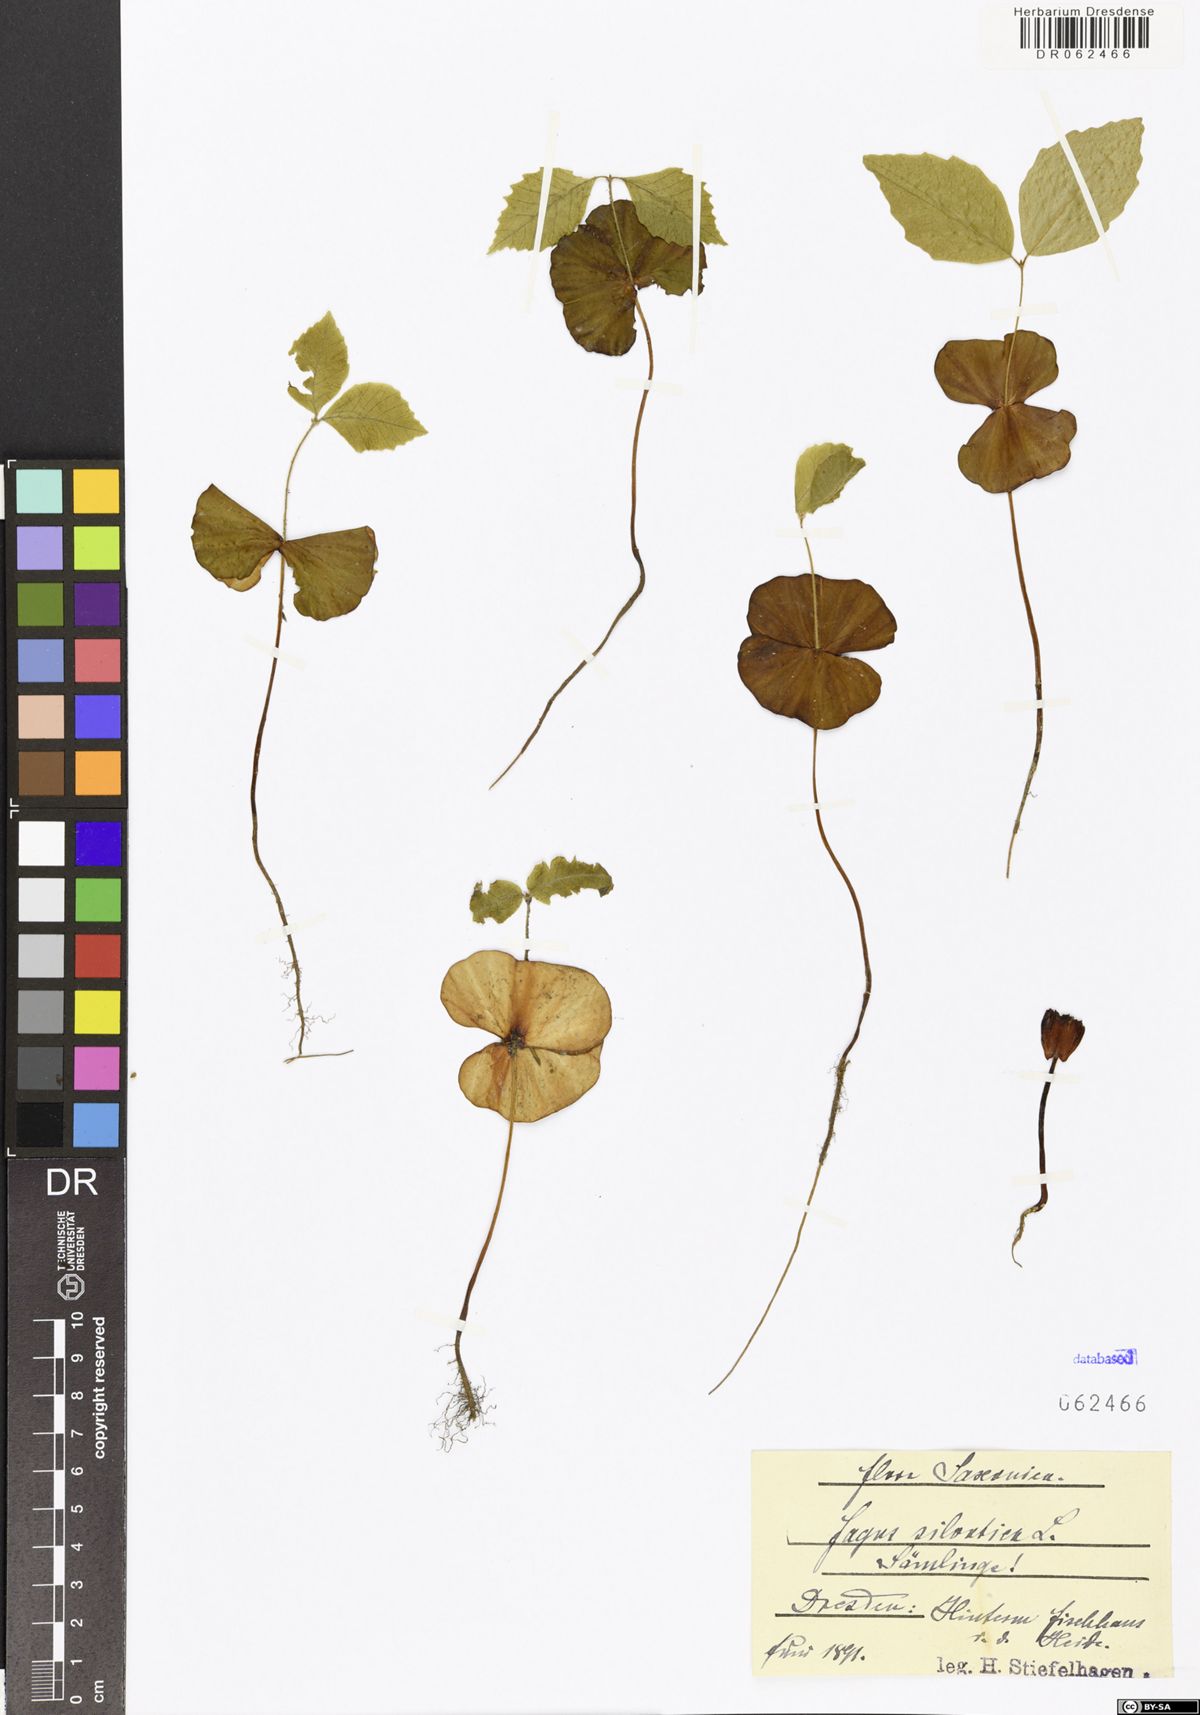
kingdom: Plantae
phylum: Tracheophyta
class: Magnoliopsida
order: Fagales
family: Fagaceae
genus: Fagus
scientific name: Fagus sylvatica
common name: Beech
